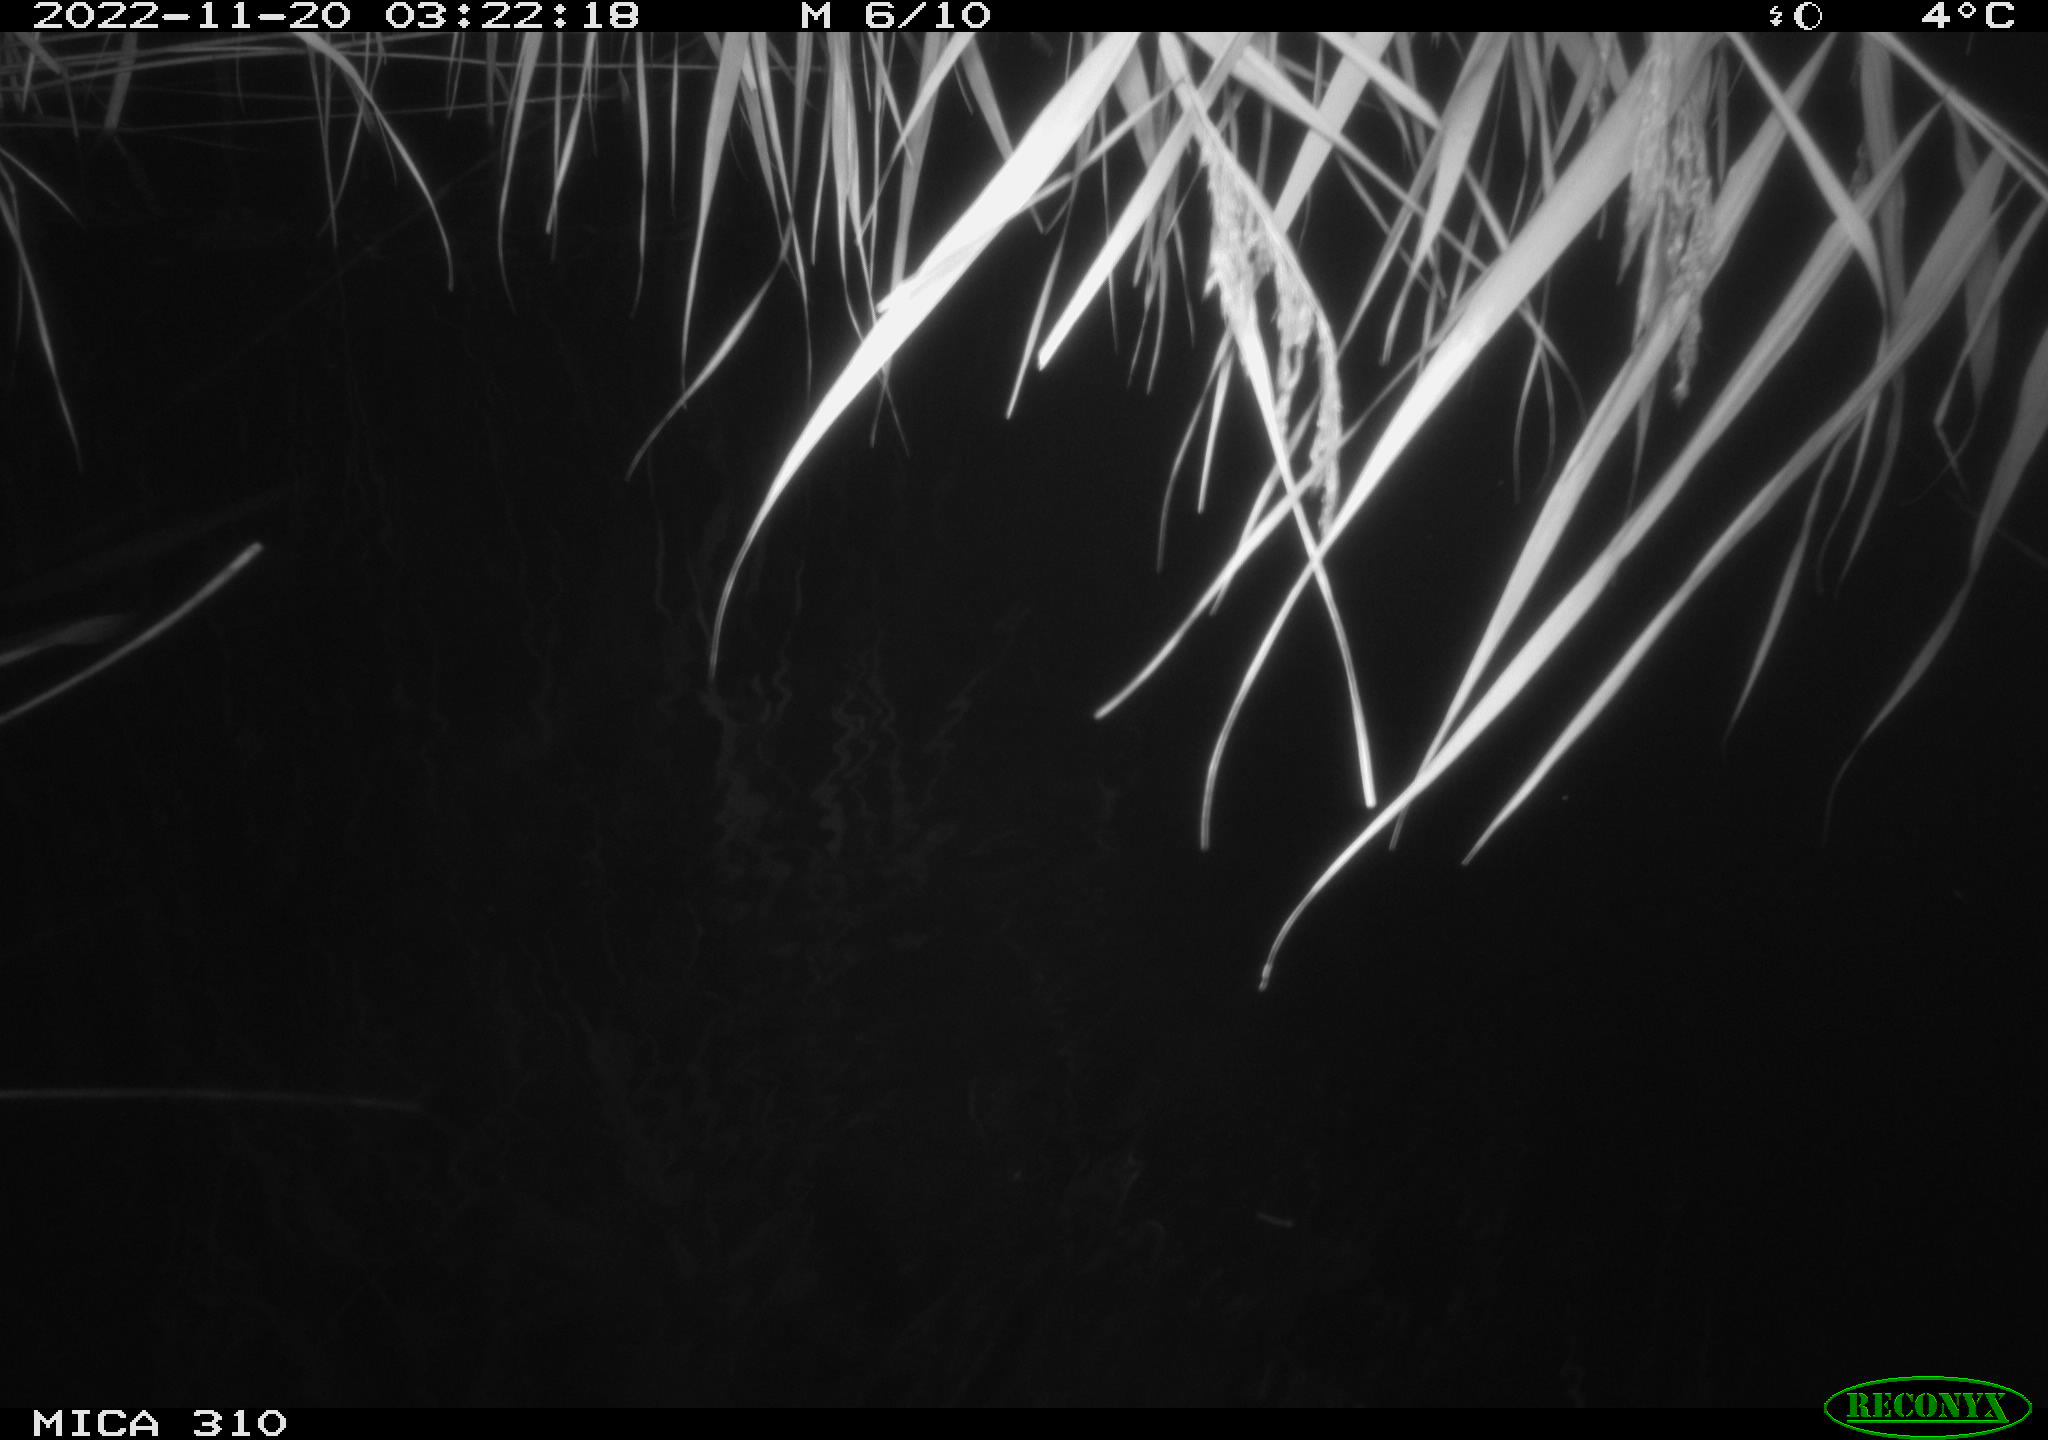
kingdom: Animalia
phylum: Chordata
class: Mammalia
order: Rodentia
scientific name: Rodentia
